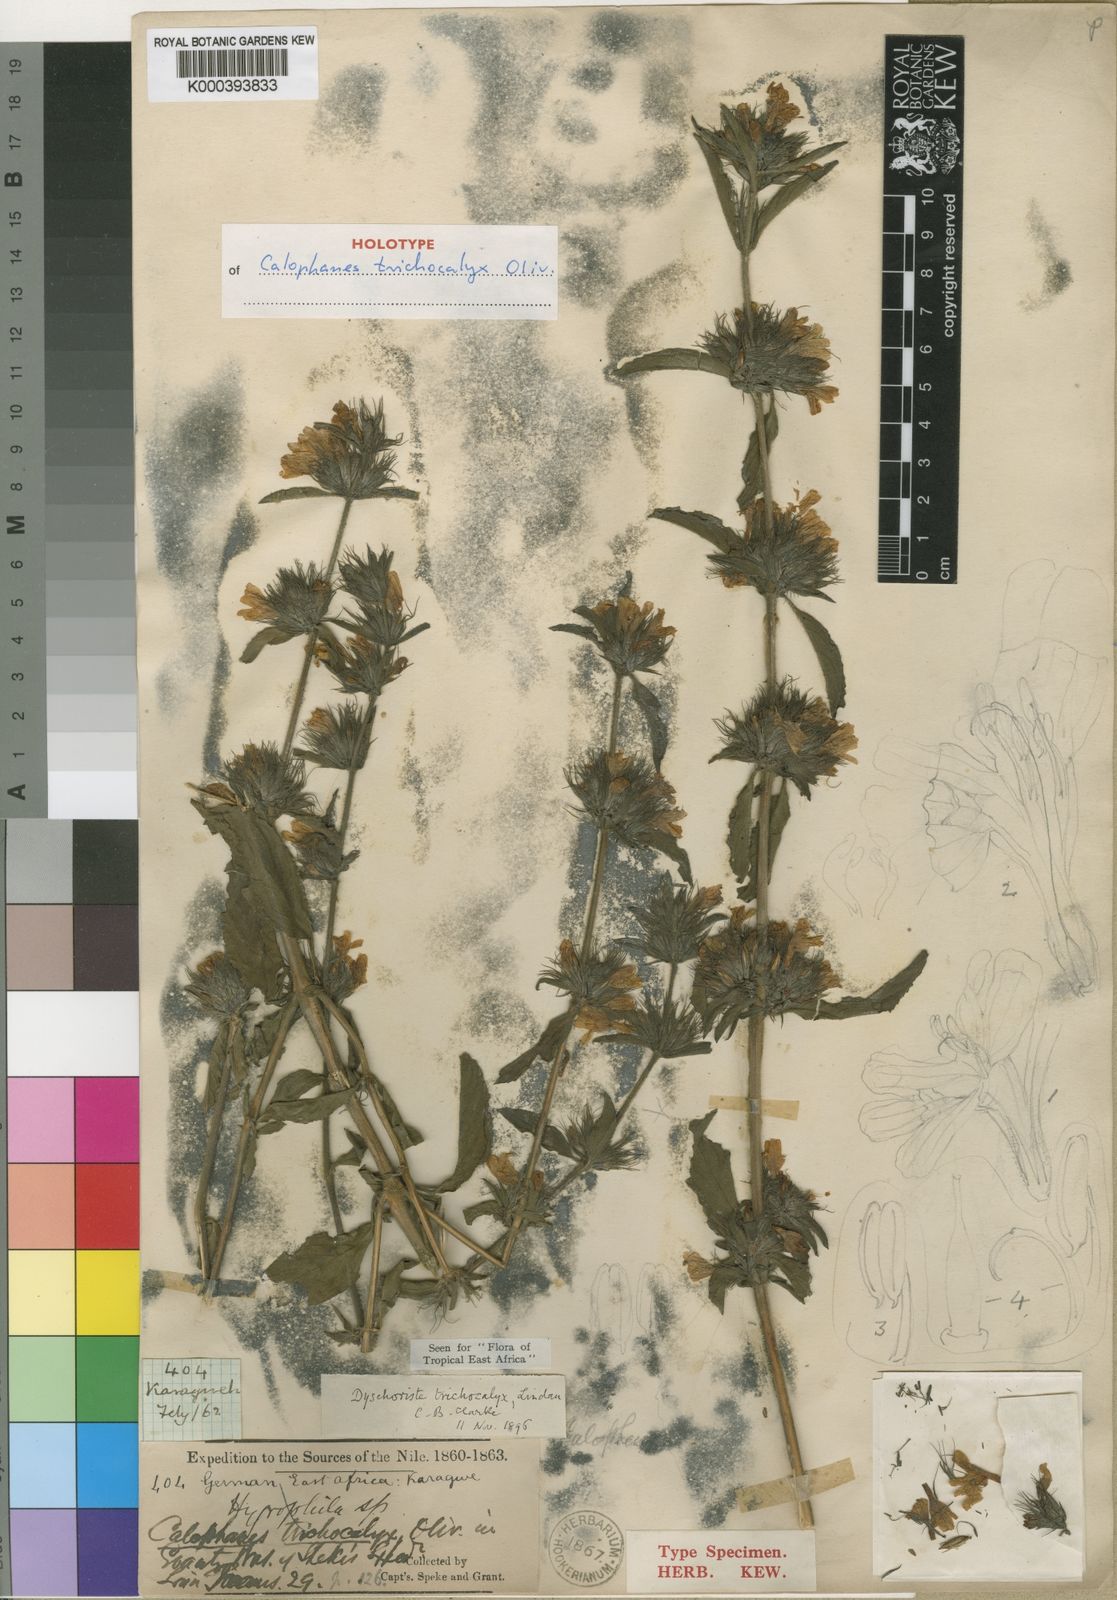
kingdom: Plantae
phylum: Tracheophyta
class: Magnoliopsida
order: Lamiales
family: Acanthaceae
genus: Dyschoriste
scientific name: Dyschoriste trichocalyx
